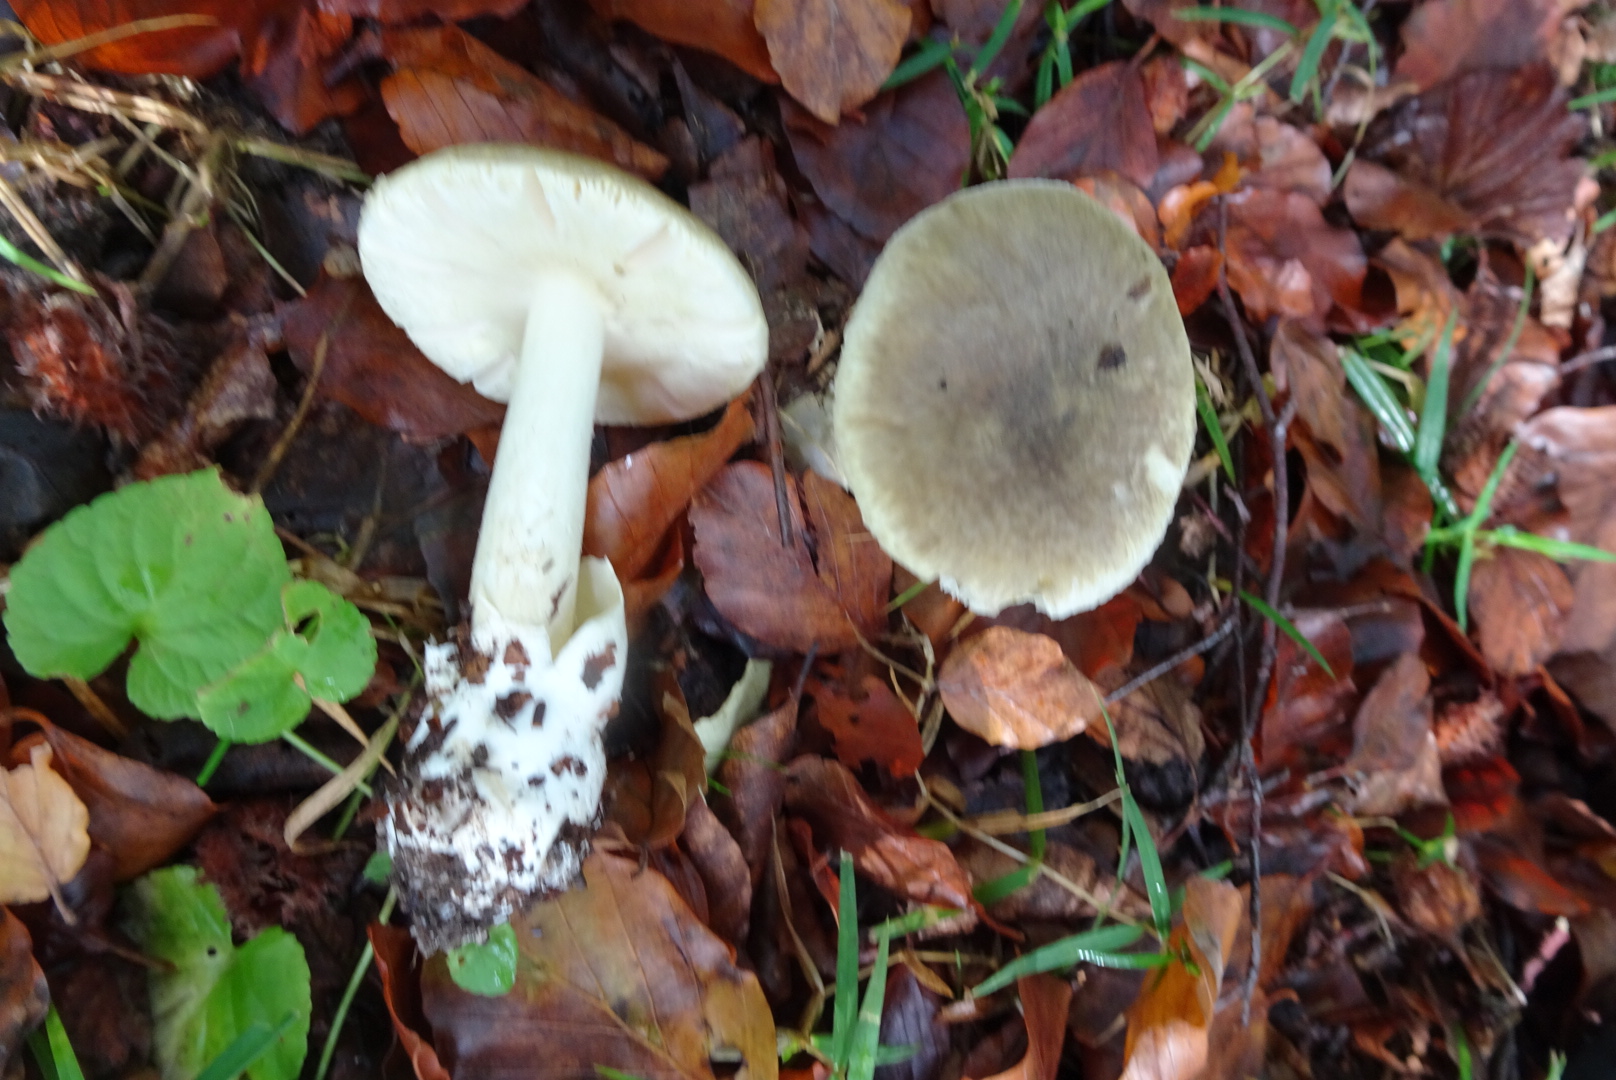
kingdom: Fungi
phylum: Basidiomycota
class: Agaricomycetes
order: Agaricales
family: Amanitaceae
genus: Amanita
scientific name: Amanita phalloides
